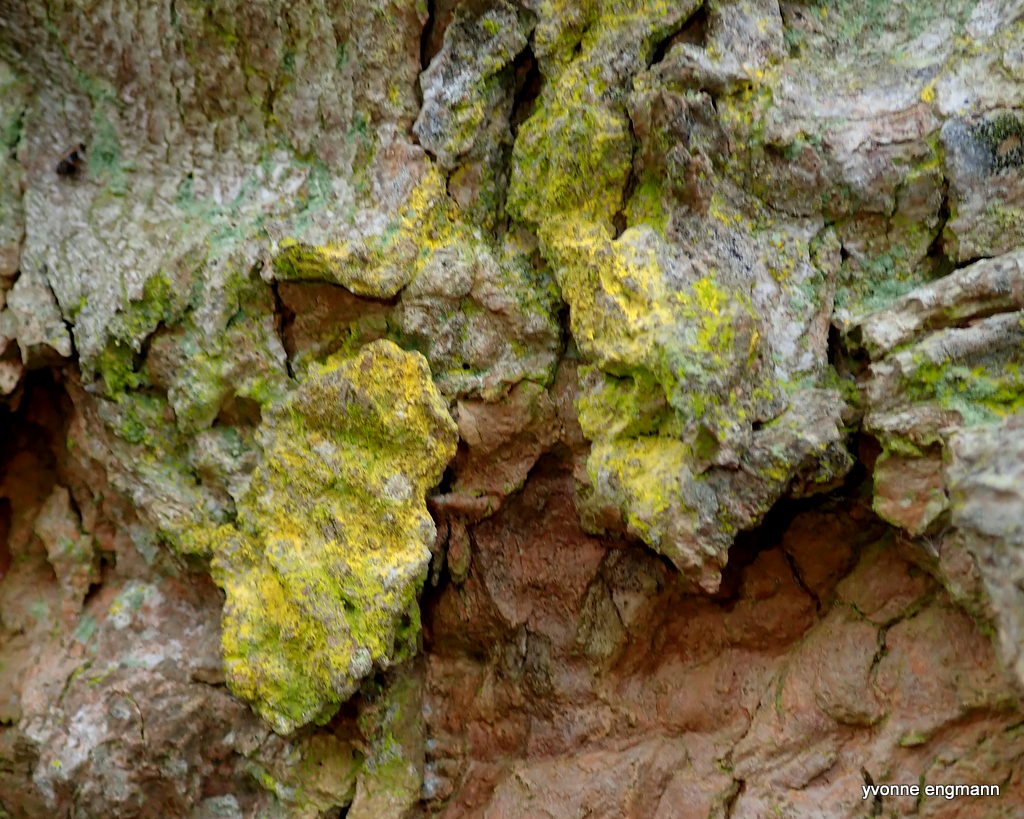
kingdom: Fungi
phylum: Ascomycota
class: Arthoniomycetes
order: Arthoniales
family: Chrysotrichaceae
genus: Chrysothrix
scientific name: Chrysothrix candelaris
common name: gul støvlav
